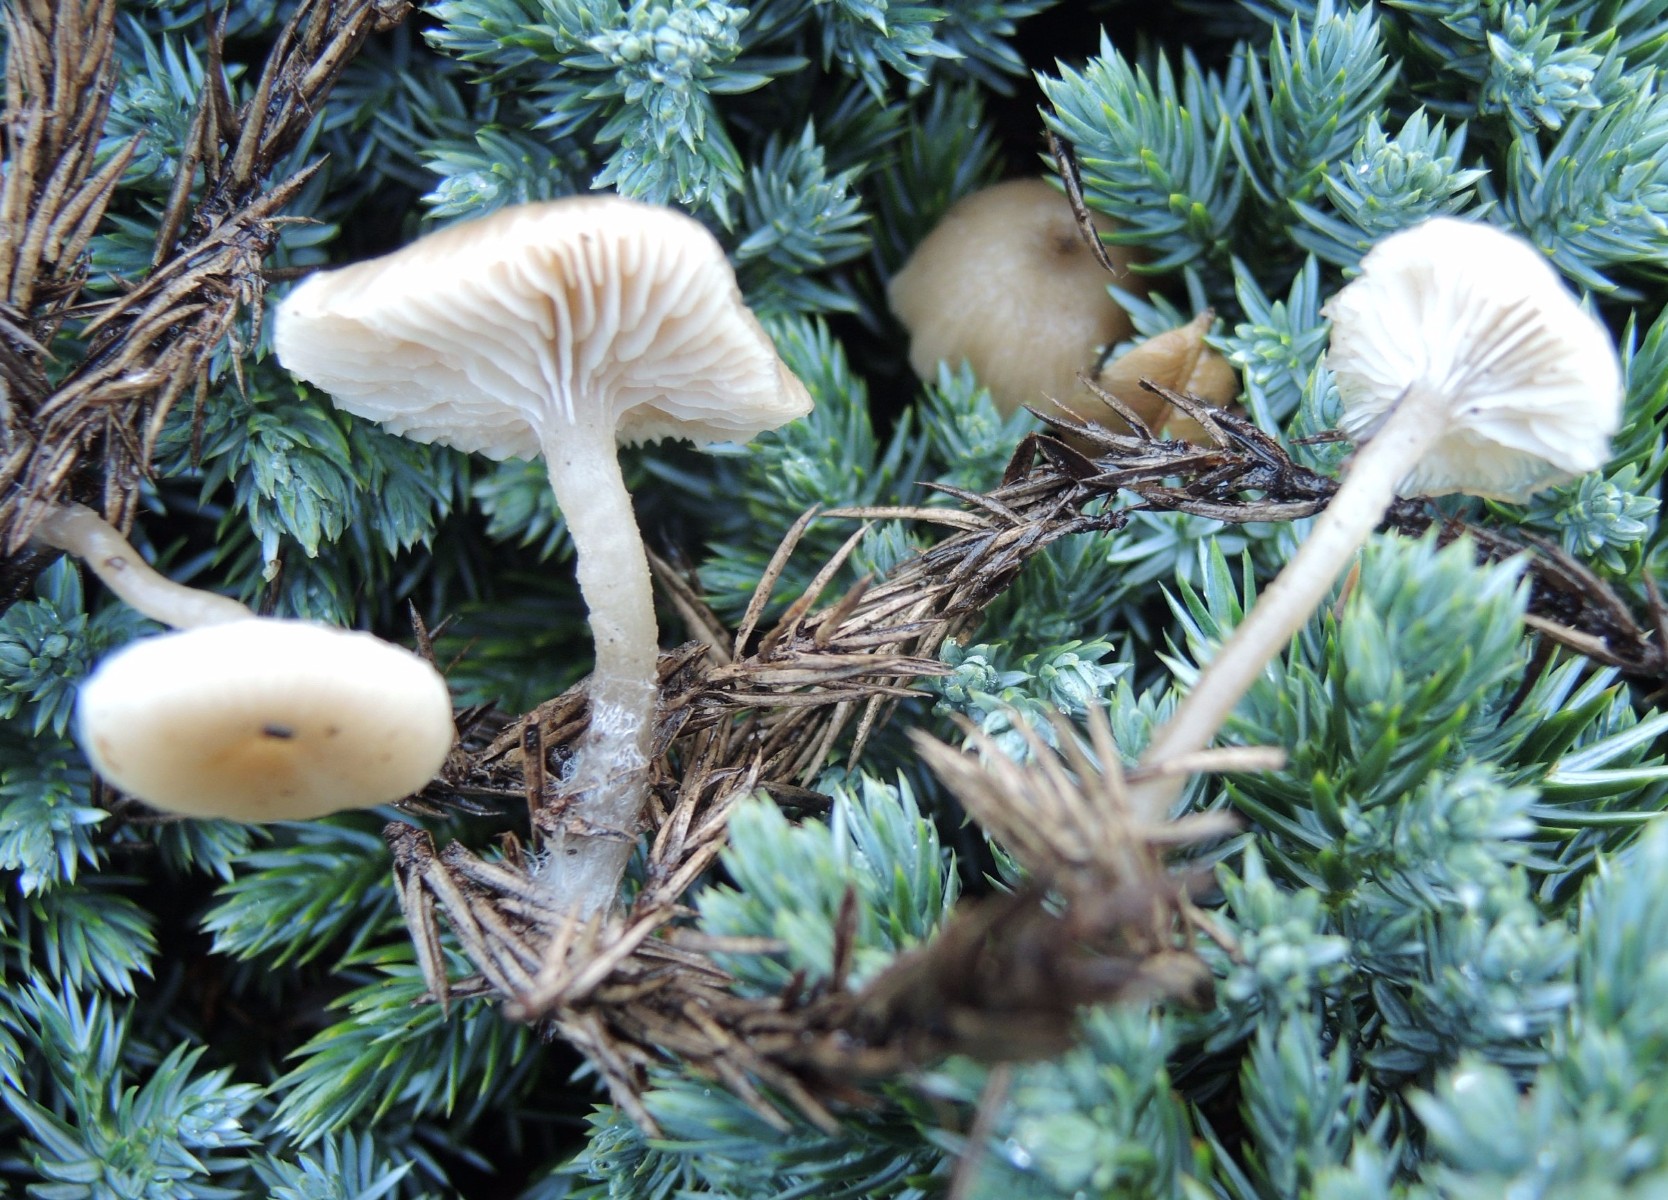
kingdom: Fungi
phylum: Basidiomycota
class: Agaricomycetes
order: Agaricales
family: Tricholomataceae
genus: Gamundia
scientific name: Gamundia striatula
